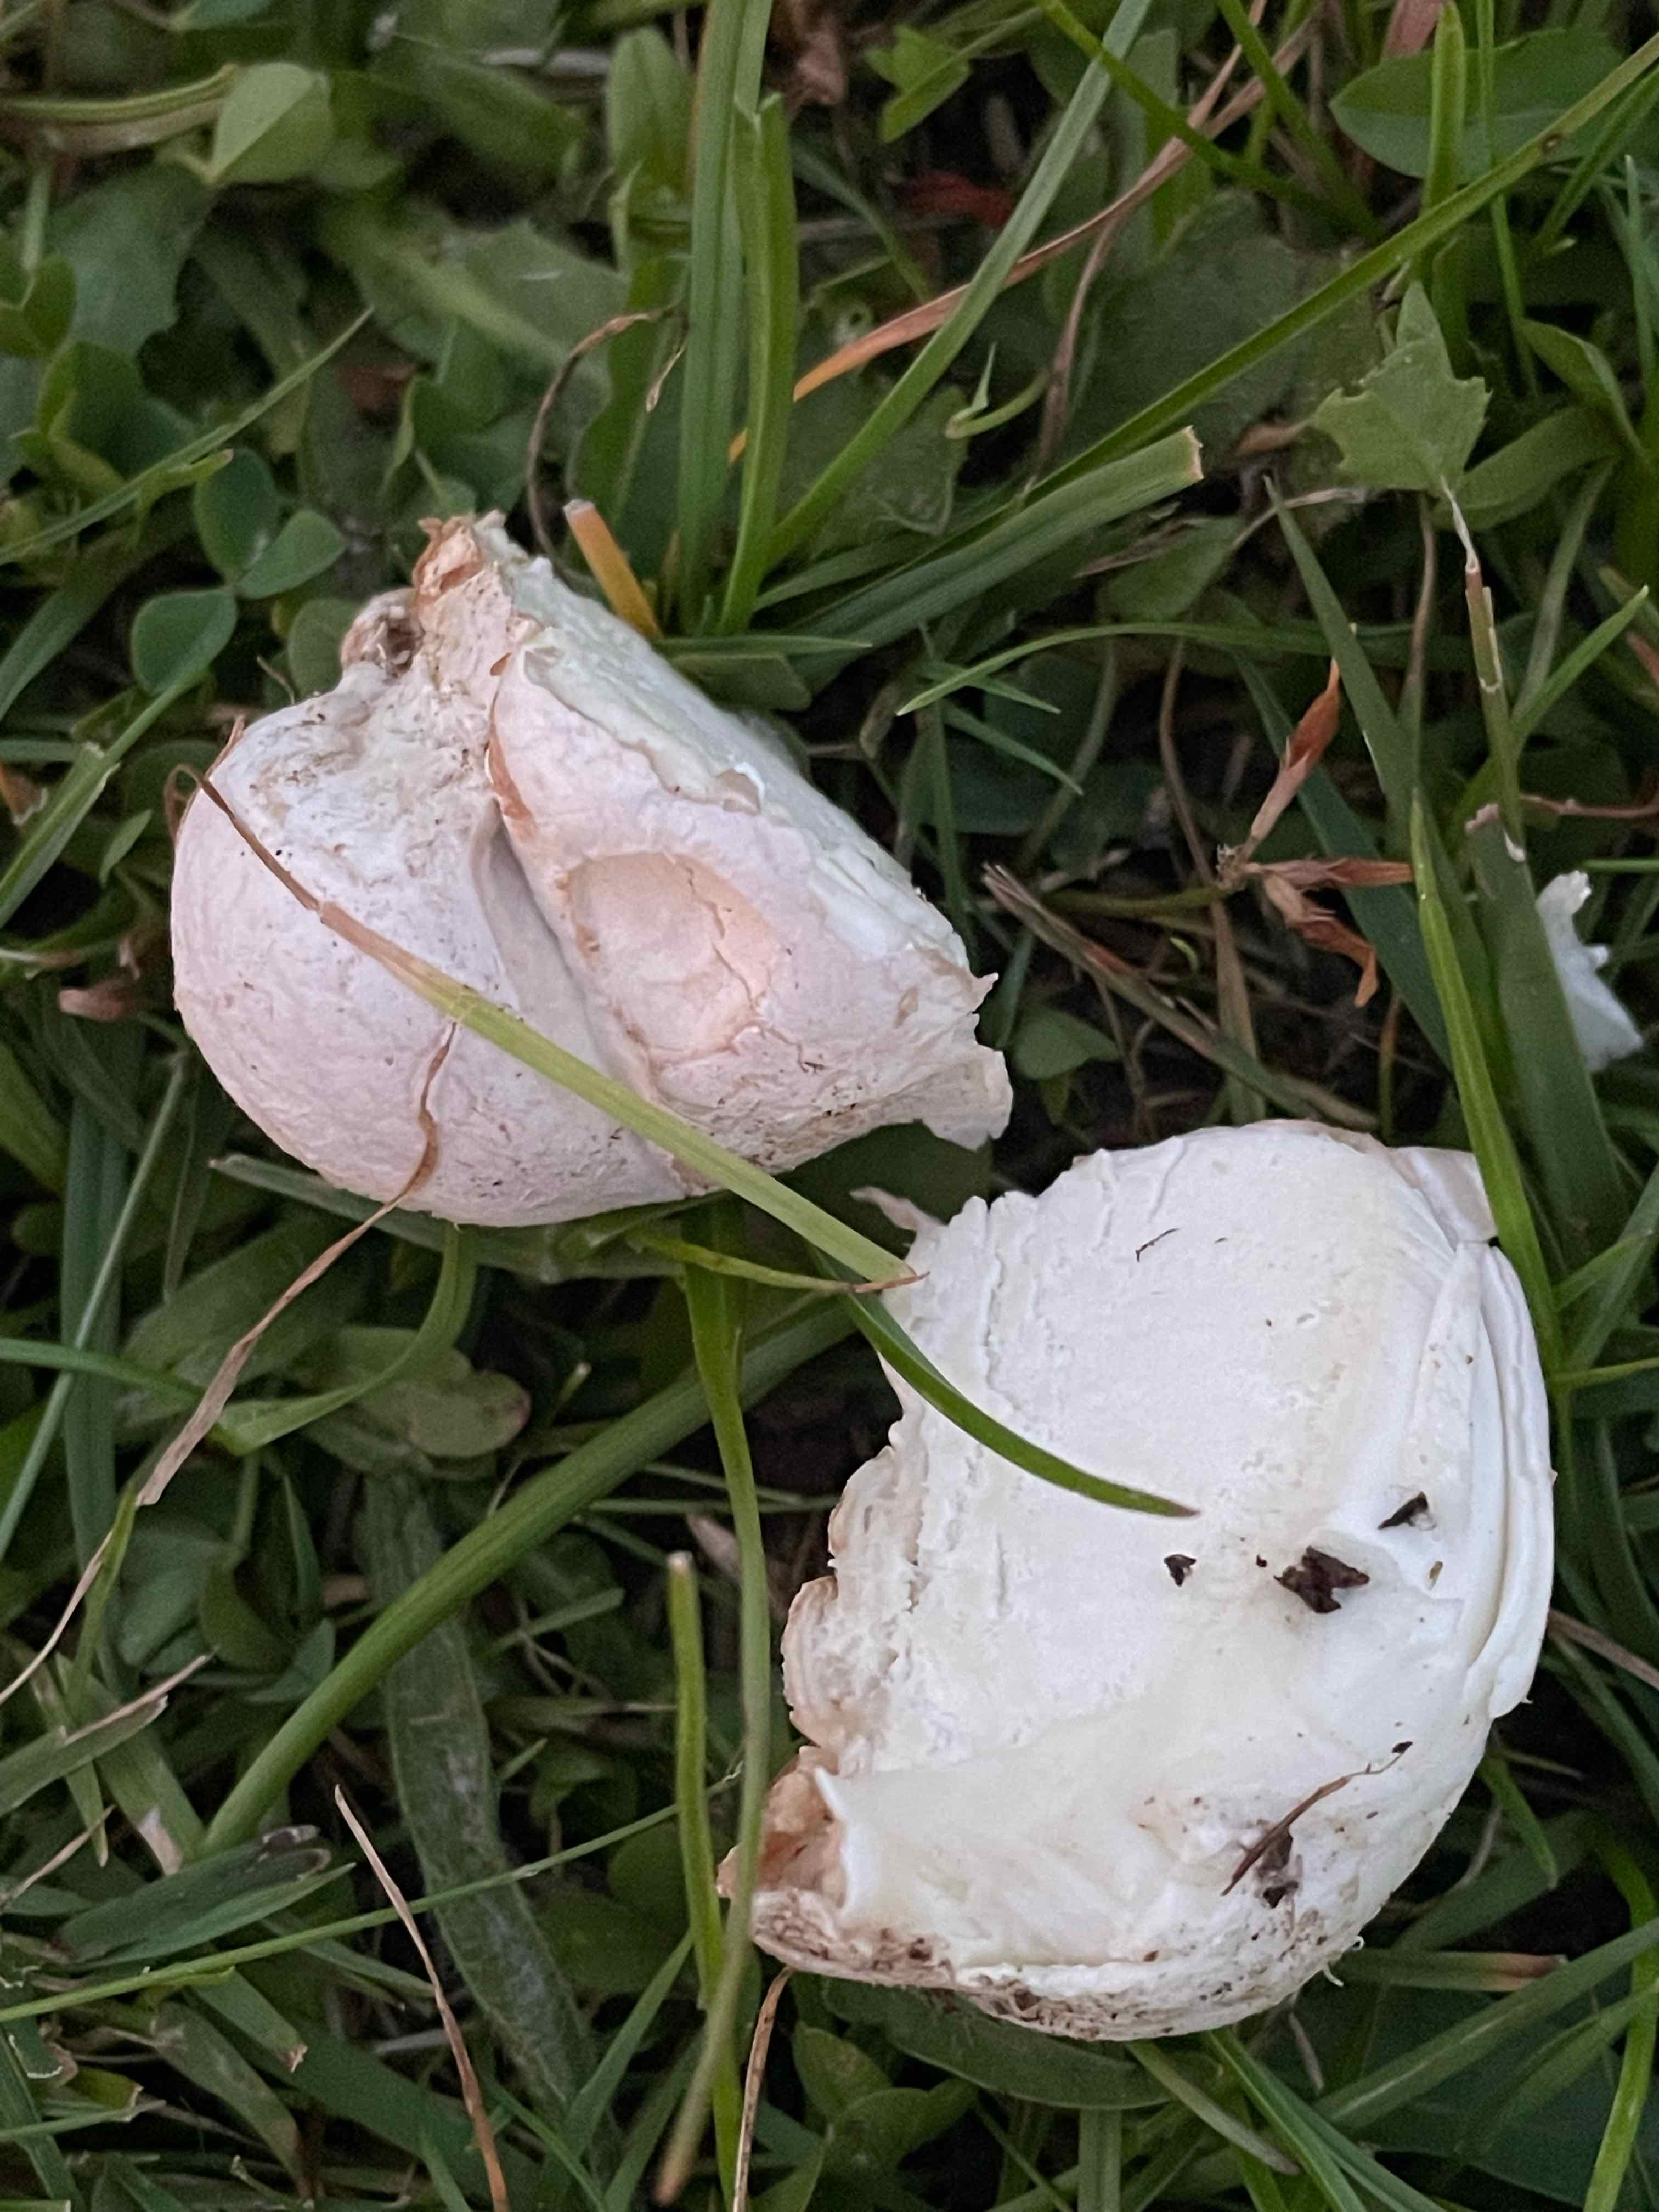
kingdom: Fungi
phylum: Basidiomycota
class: Agaricomycetes
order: Agaricales
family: Lycoperdaceae
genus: Bovista
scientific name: Bovista plumbea
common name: blygrå bovist
